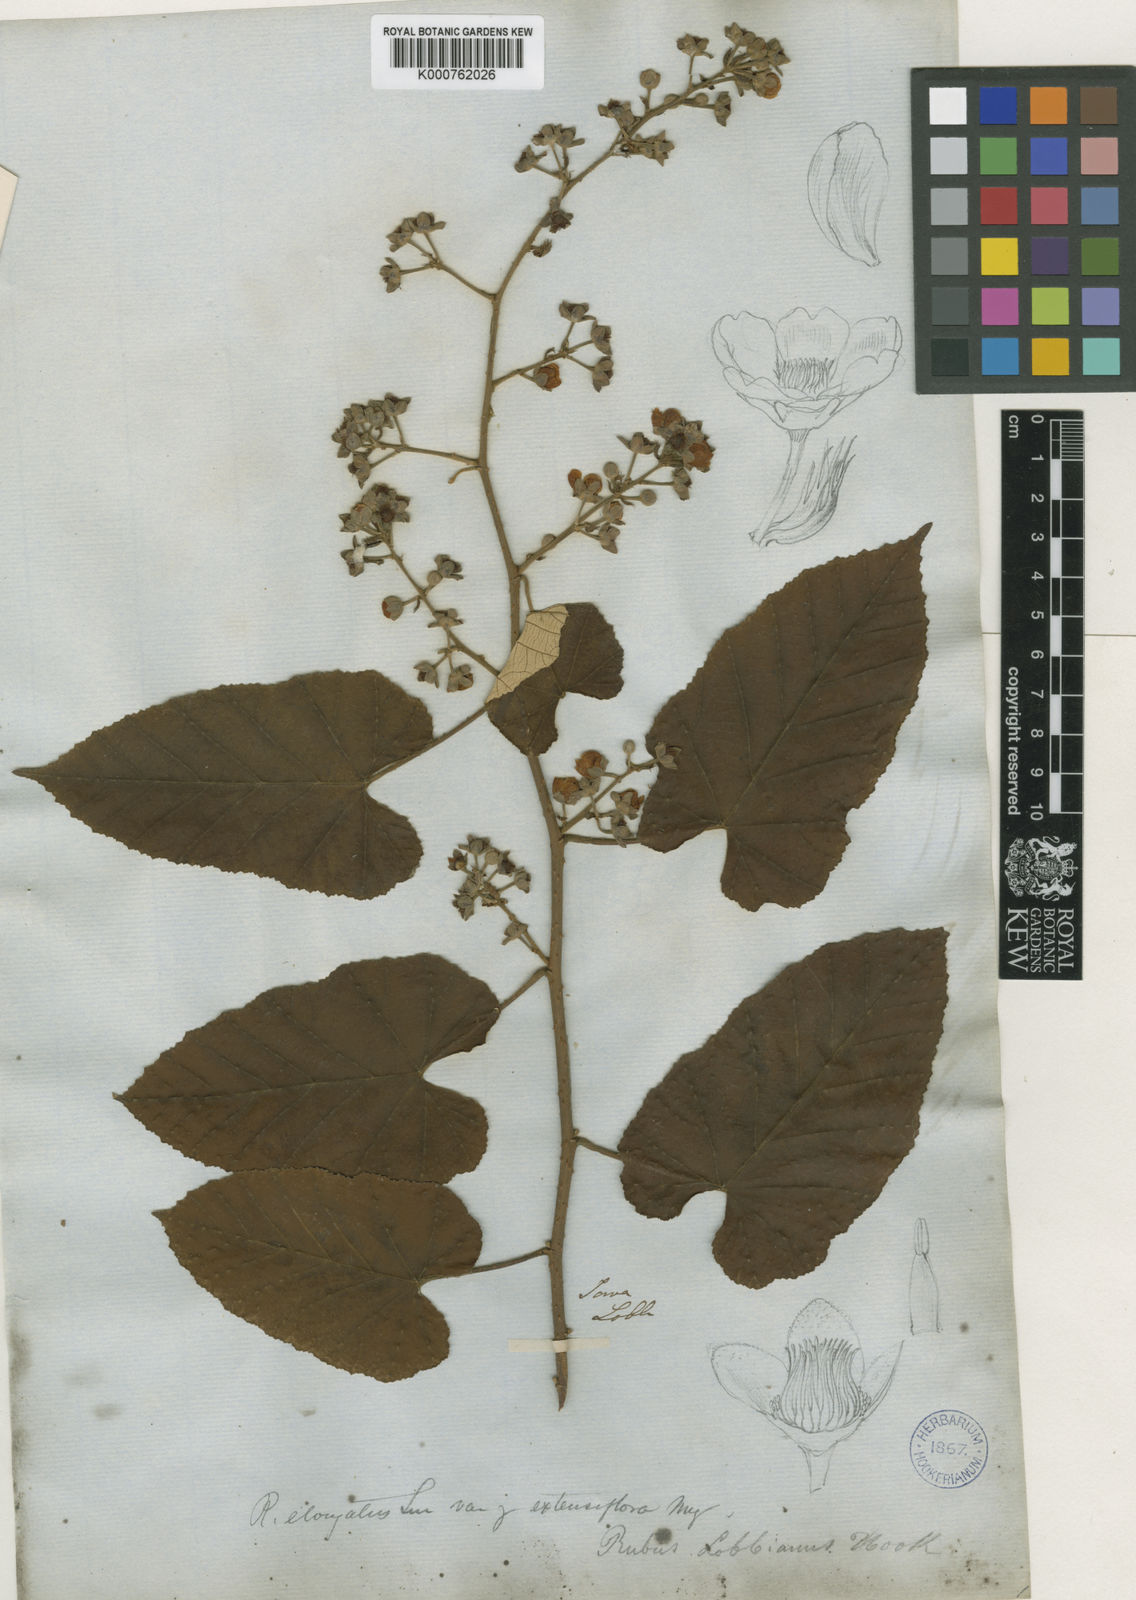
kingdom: Plantae
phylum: Tracheophyta
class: Magnoliopsida
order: Rosales
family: Rosaceae
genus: Rubus
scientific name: Rubus elongatus
